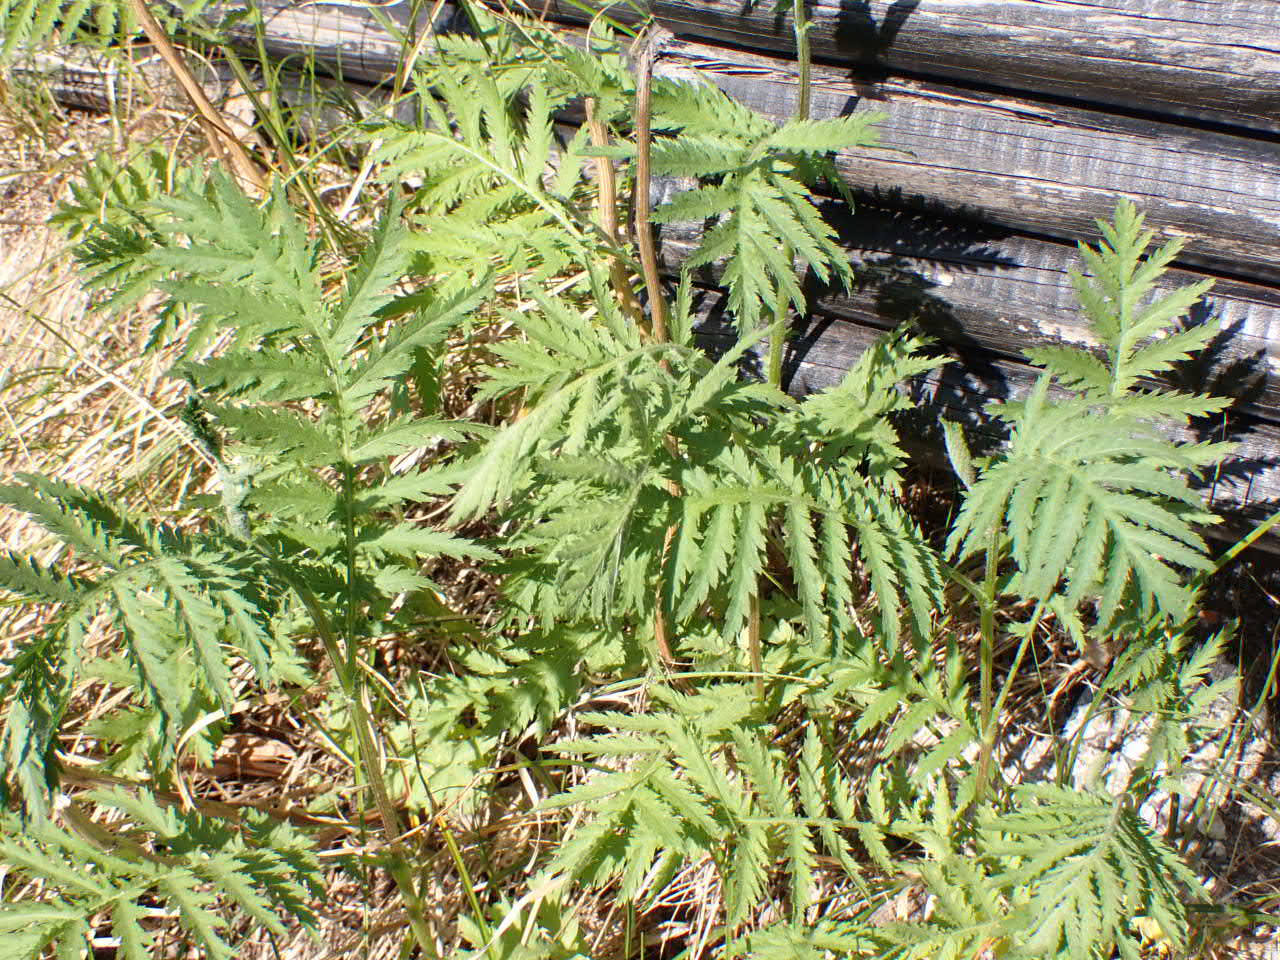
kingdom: Plantae
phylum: Tracheophyta
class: Magnoliopsida
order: Asterales
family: Asteraceae
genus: Tanacetum
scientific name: Tanacetum vulgare
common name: Rejnfan
